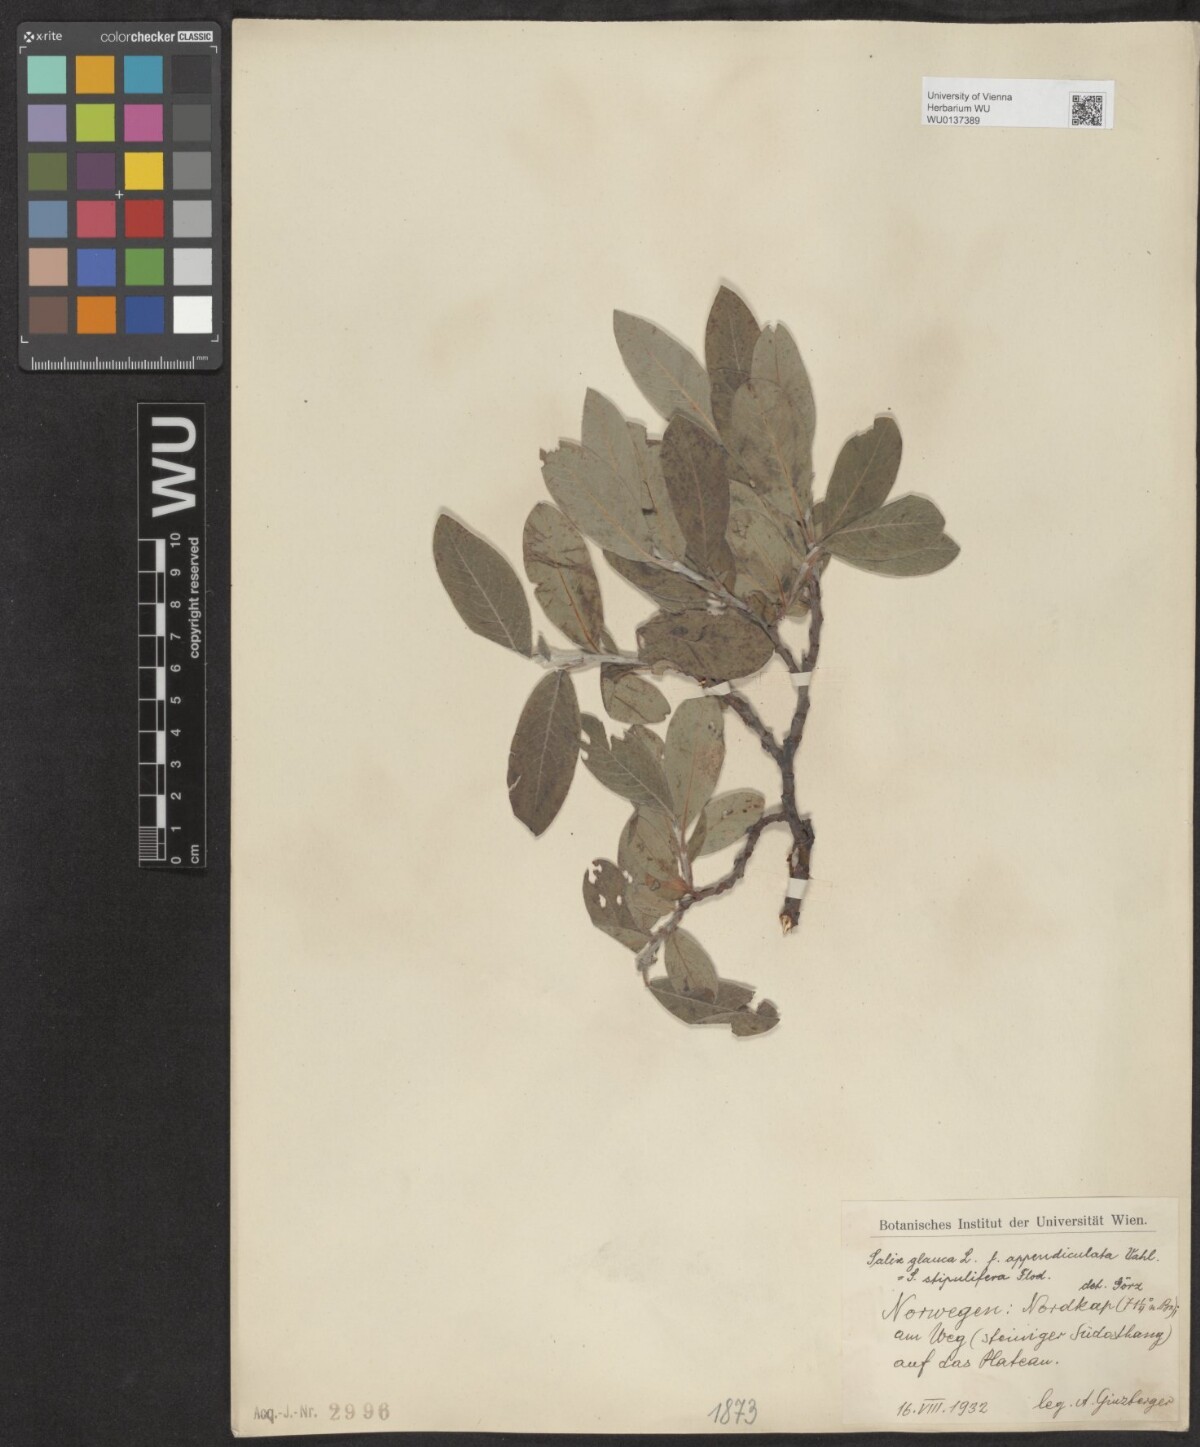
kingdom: Plantae
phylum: Tracheophyta
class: Magnoliopsida
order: Malpighiales
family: Salicaceae
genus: Salix
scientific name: Salix glauca
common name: Glaucous willow
